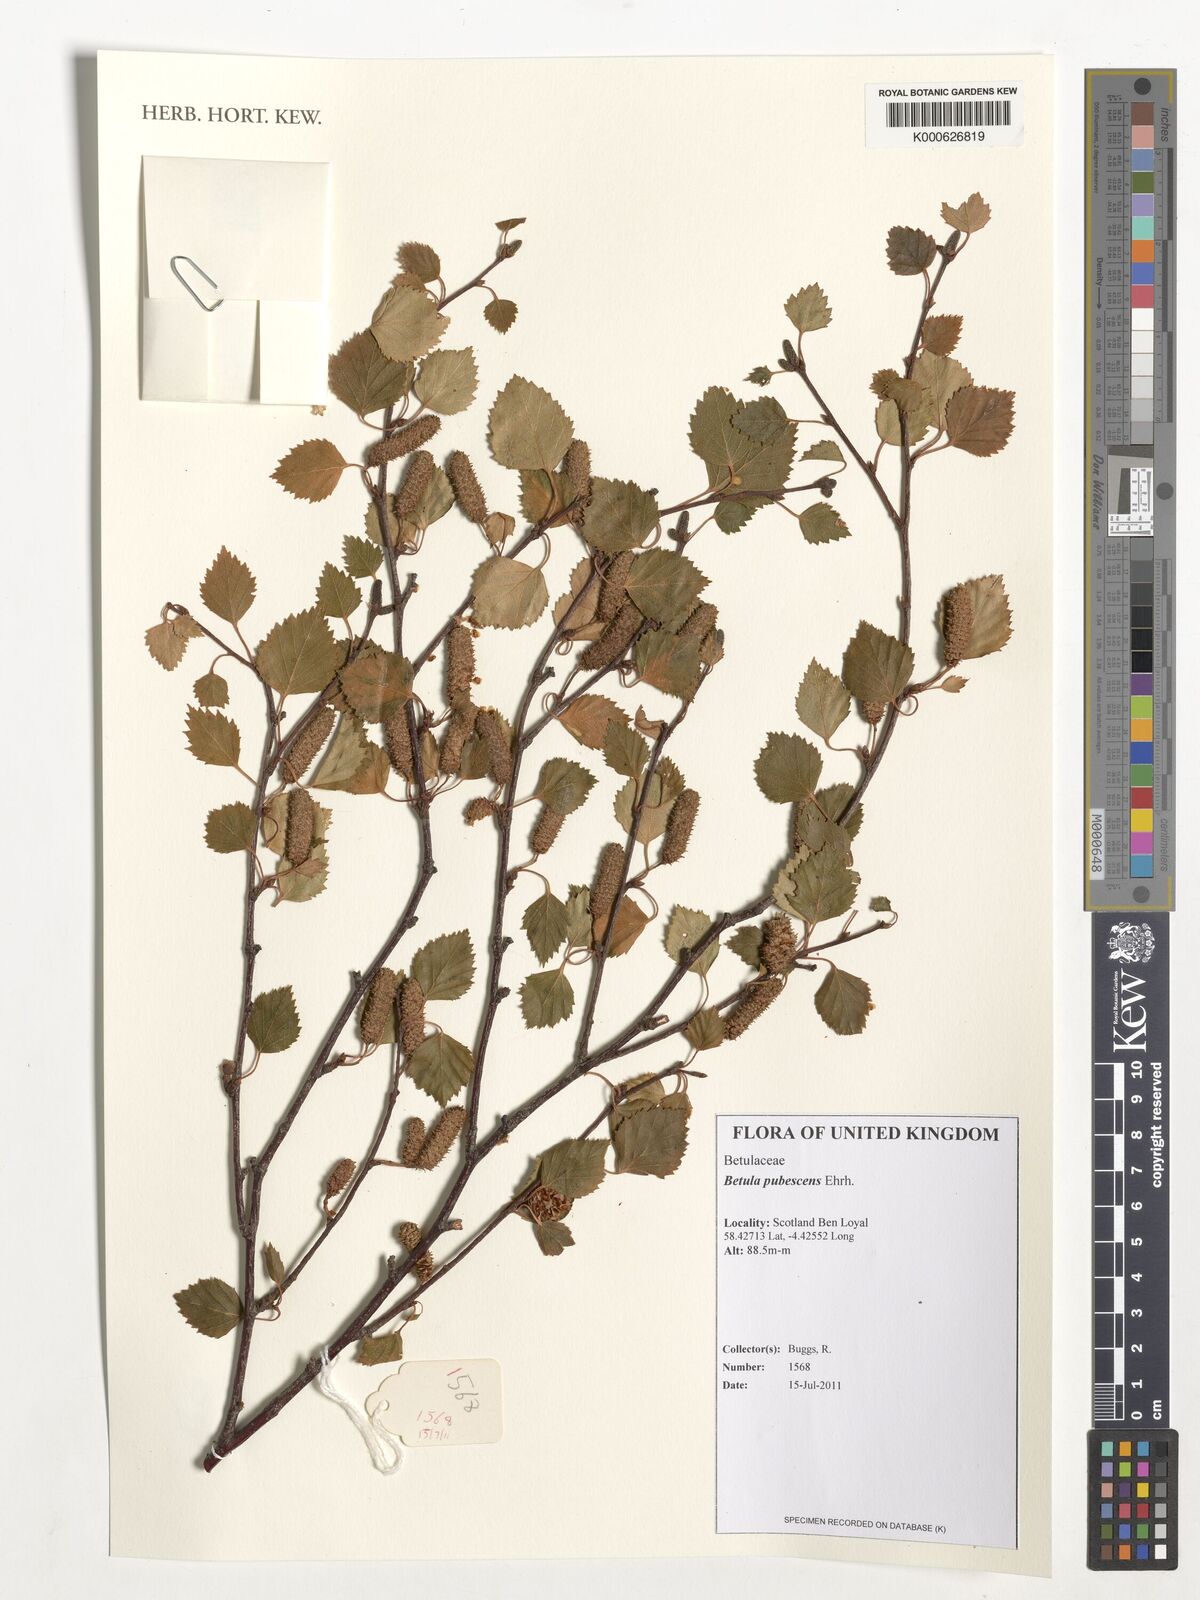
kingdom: Plantae
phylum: Tracheophyta
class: Magnoliopsida
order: Fagales
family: Betulaceae
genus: Betula
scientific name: Betula pubescens
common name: Downy birch
